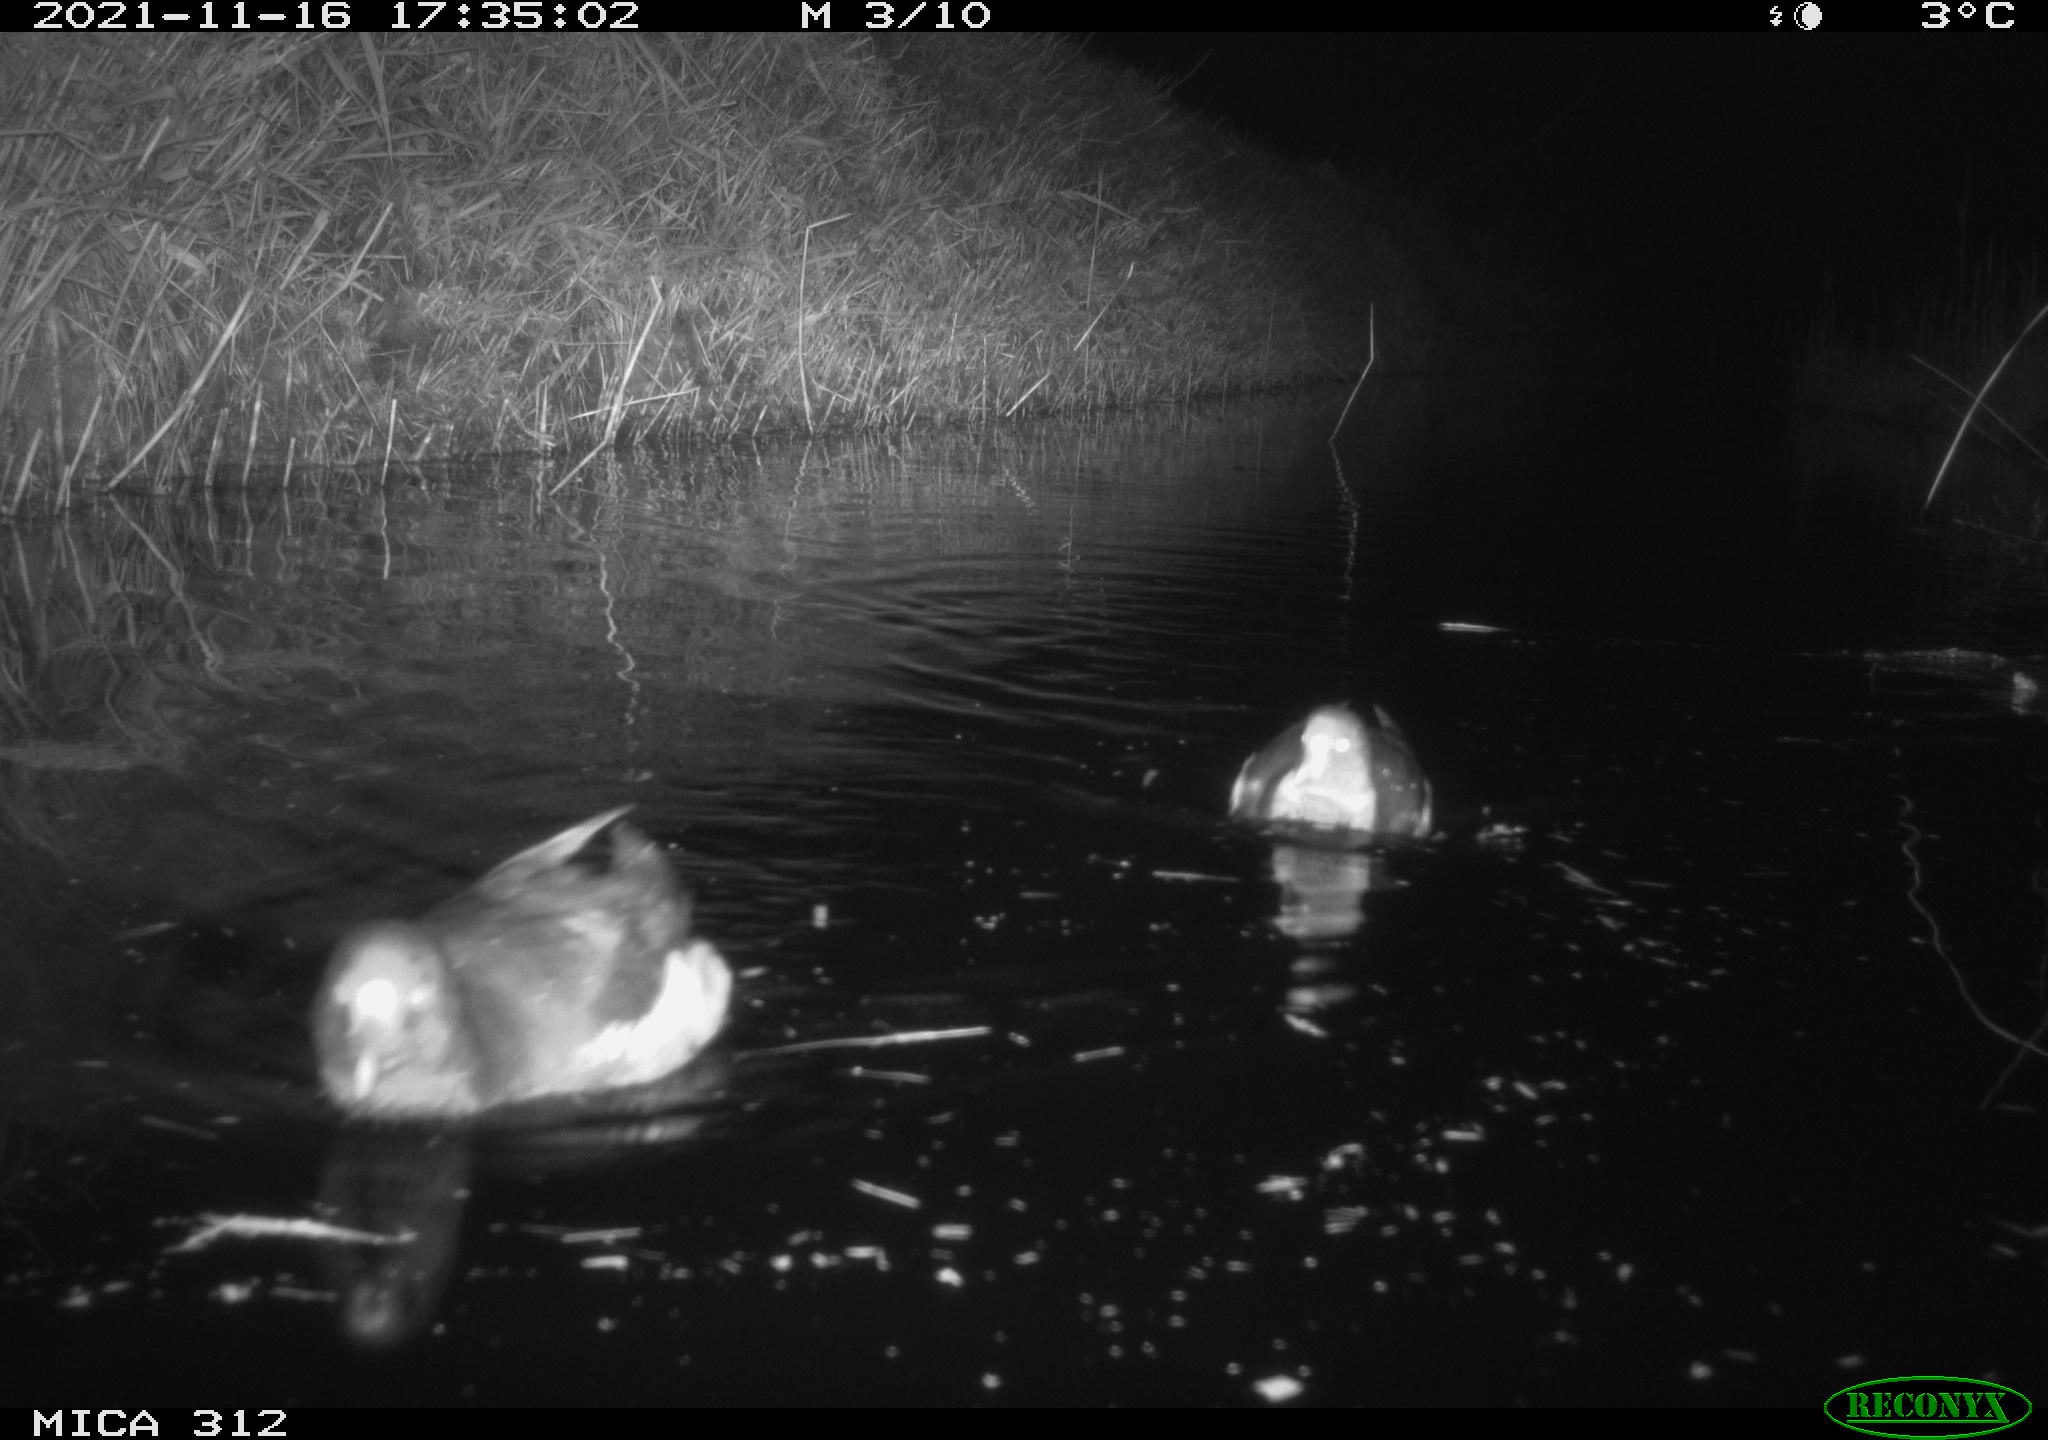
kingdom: Animalia
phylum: Chordata
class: Aves
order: Anseriformes
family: Anatidae
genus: Anas
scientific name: Anas
